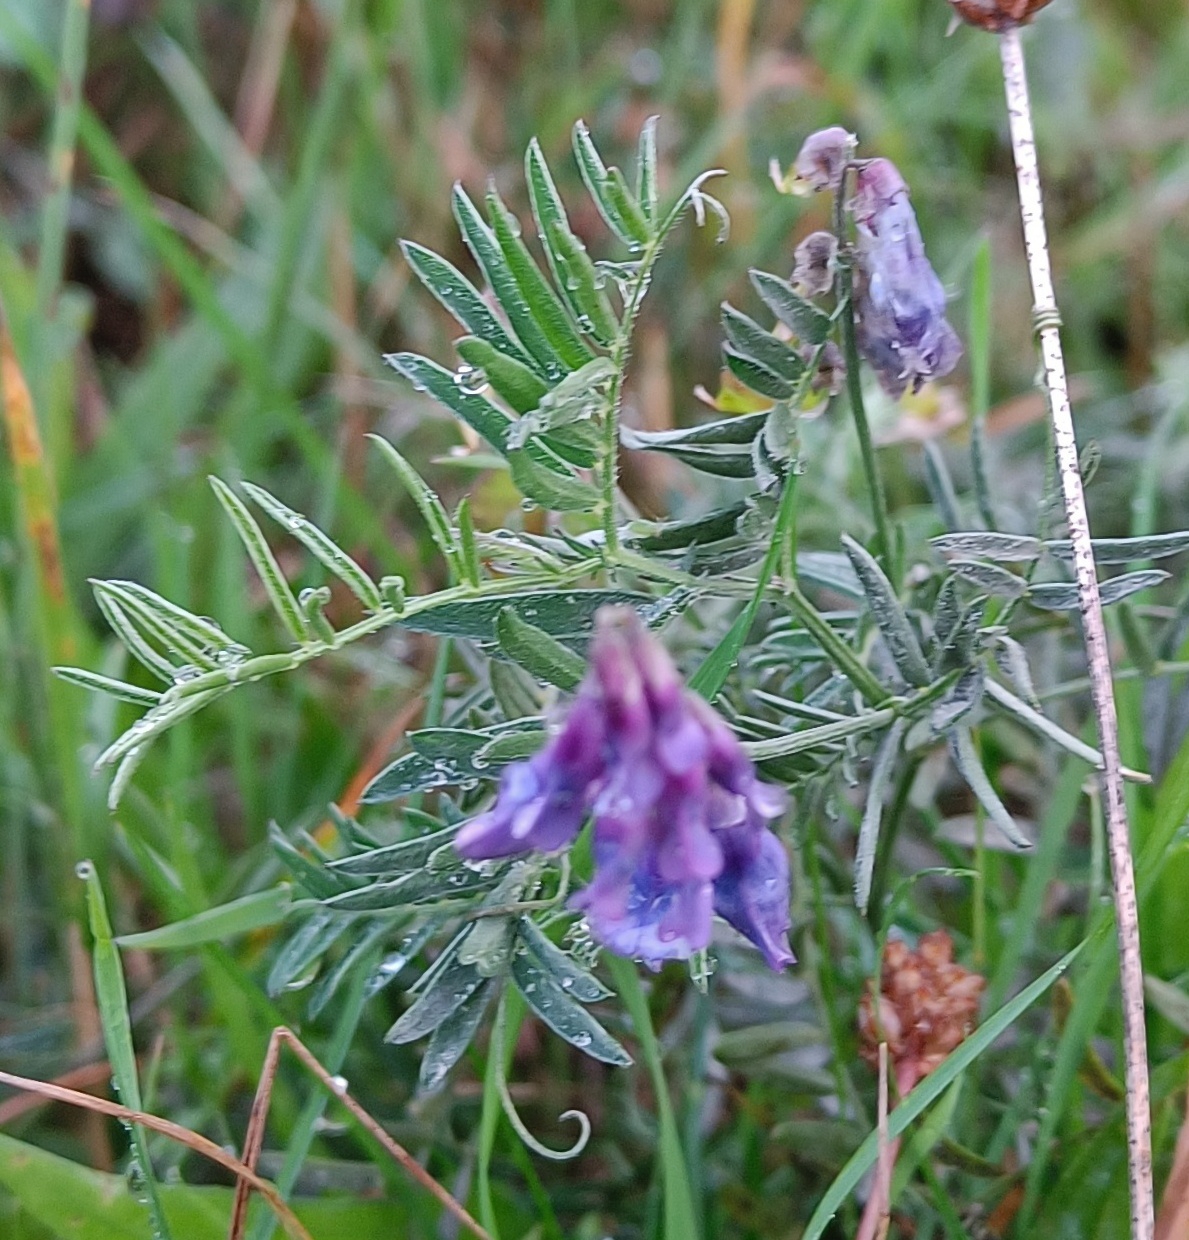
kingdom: Plantae
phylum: Tracheophyta
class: Magnoliopsida
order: Fabales
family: Fabaceae
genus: Vicia
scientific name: Vicia cracca
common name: Muse-vikke
